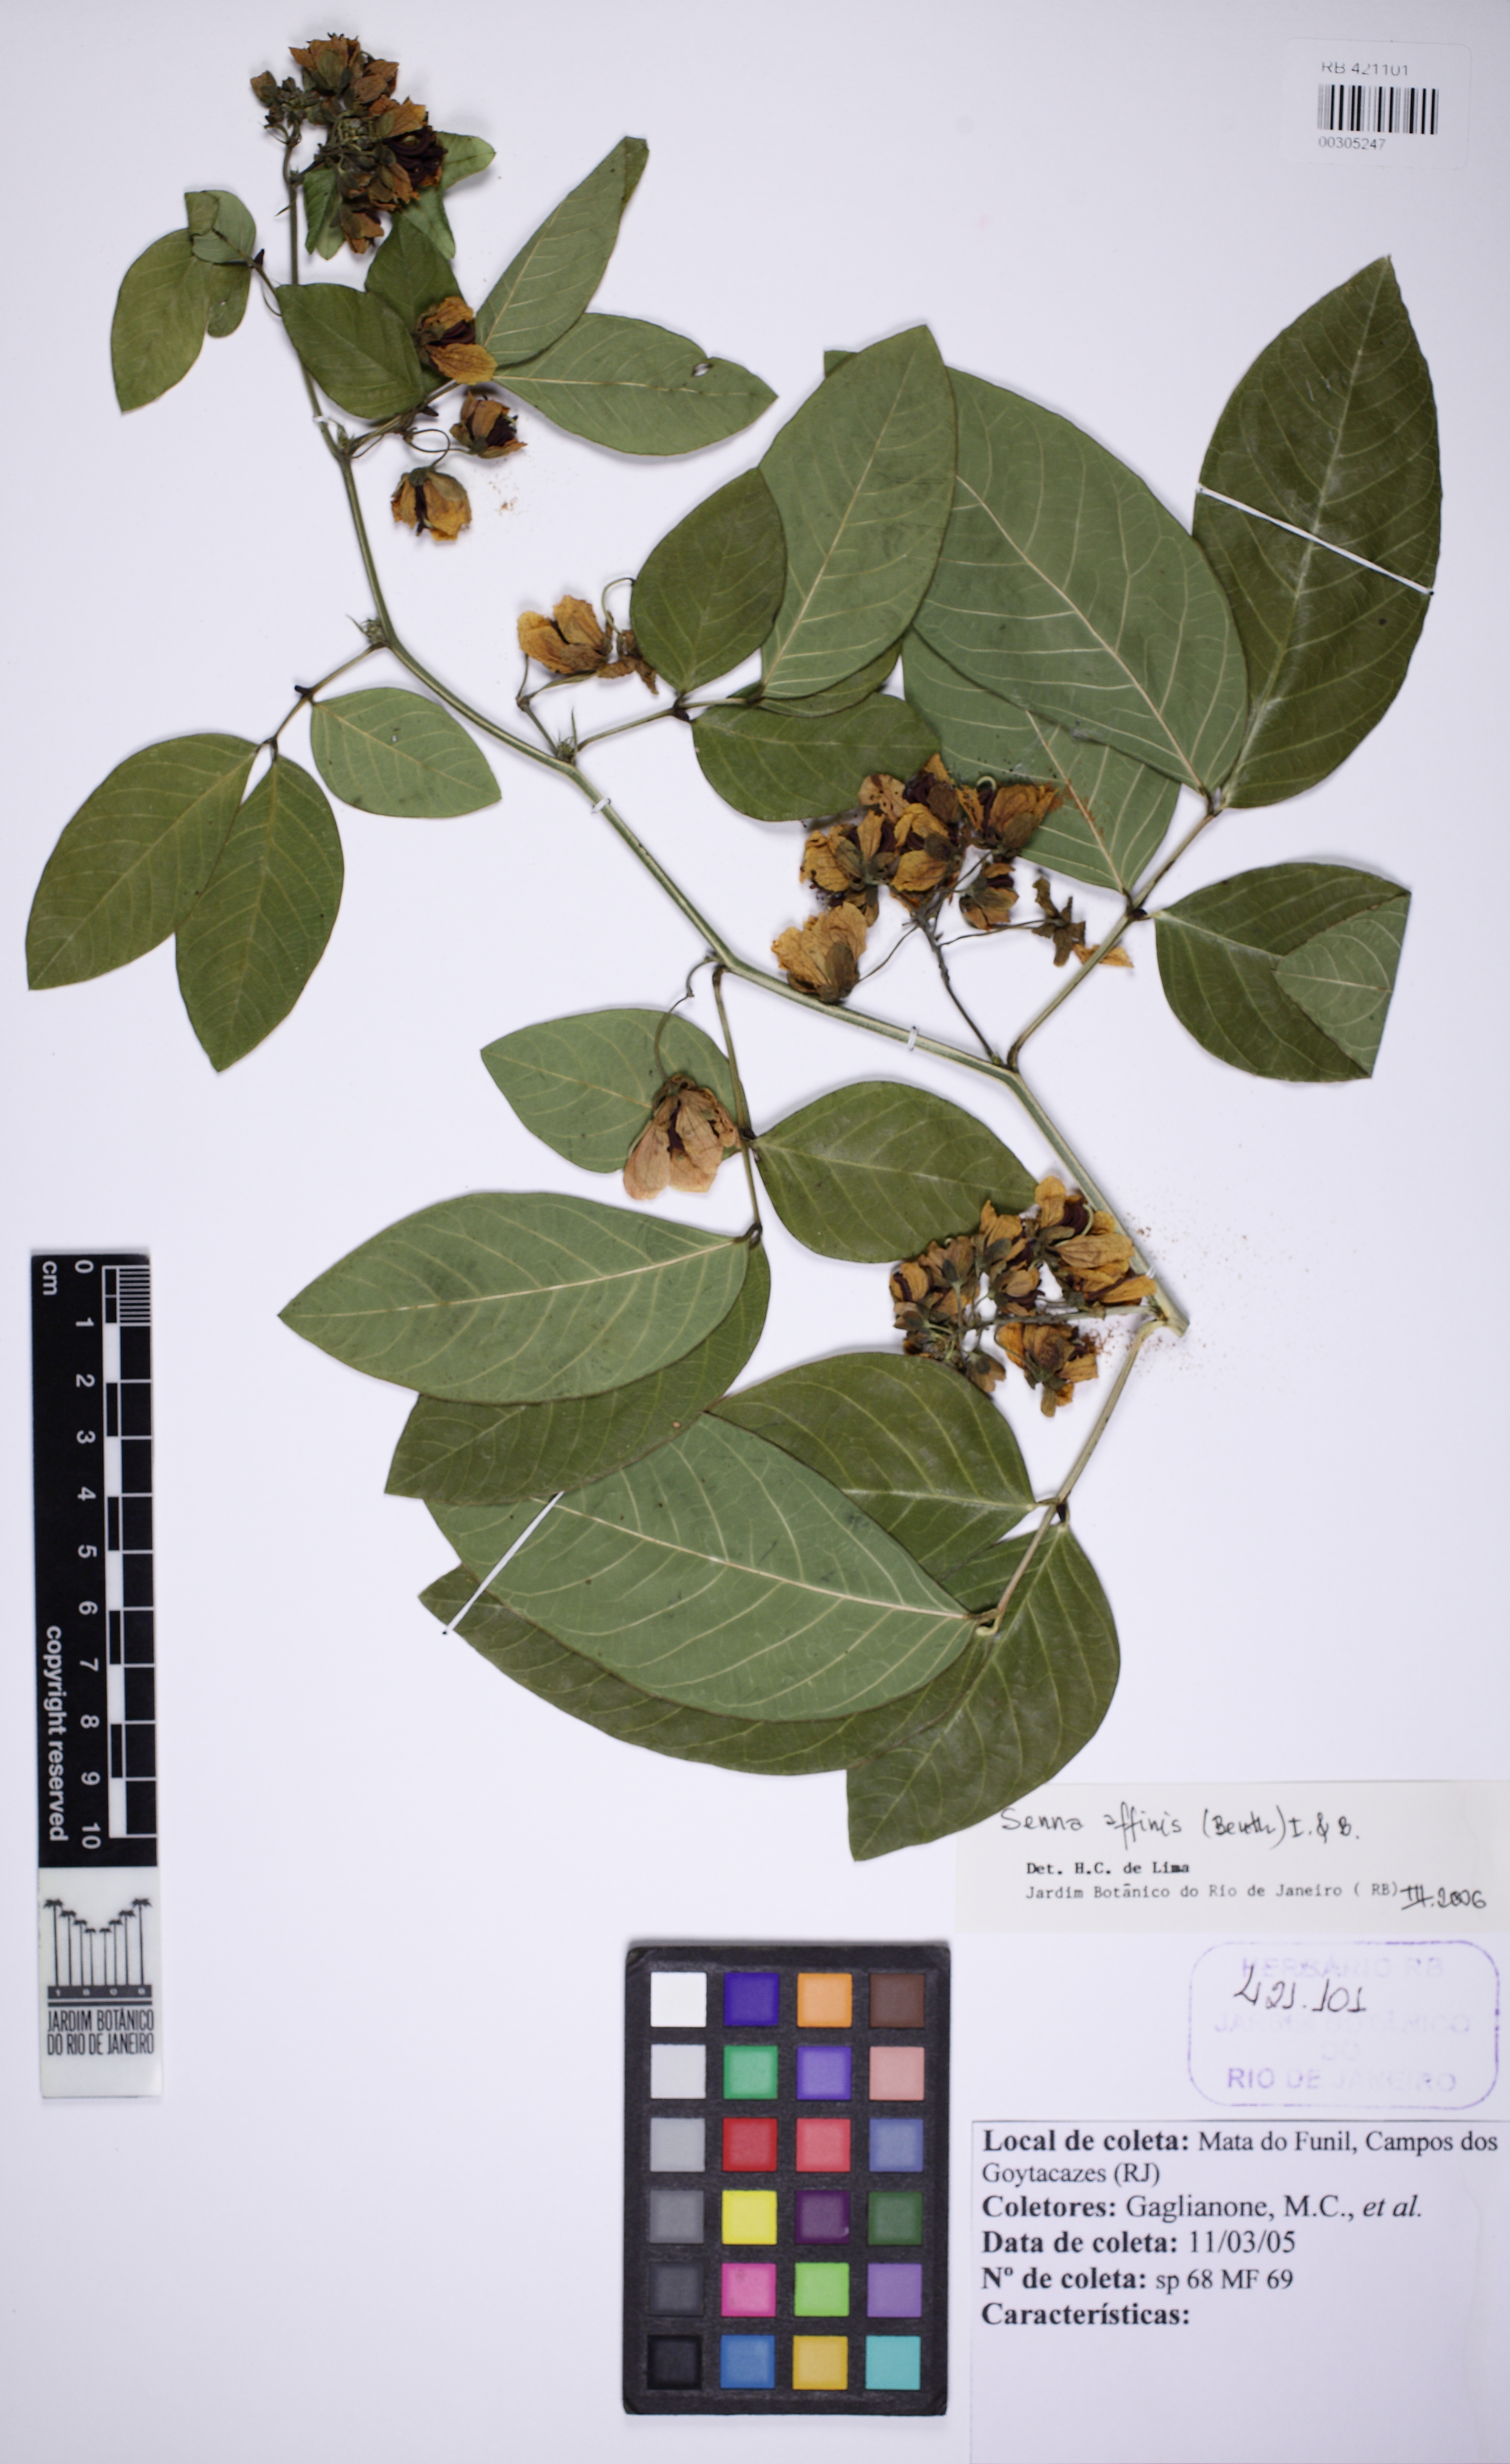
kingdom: Plantae
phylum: Tracheophyta
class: Magnoliopsida
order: Fabales
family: Fabaceae
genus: Senna
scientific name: Senna affinis
